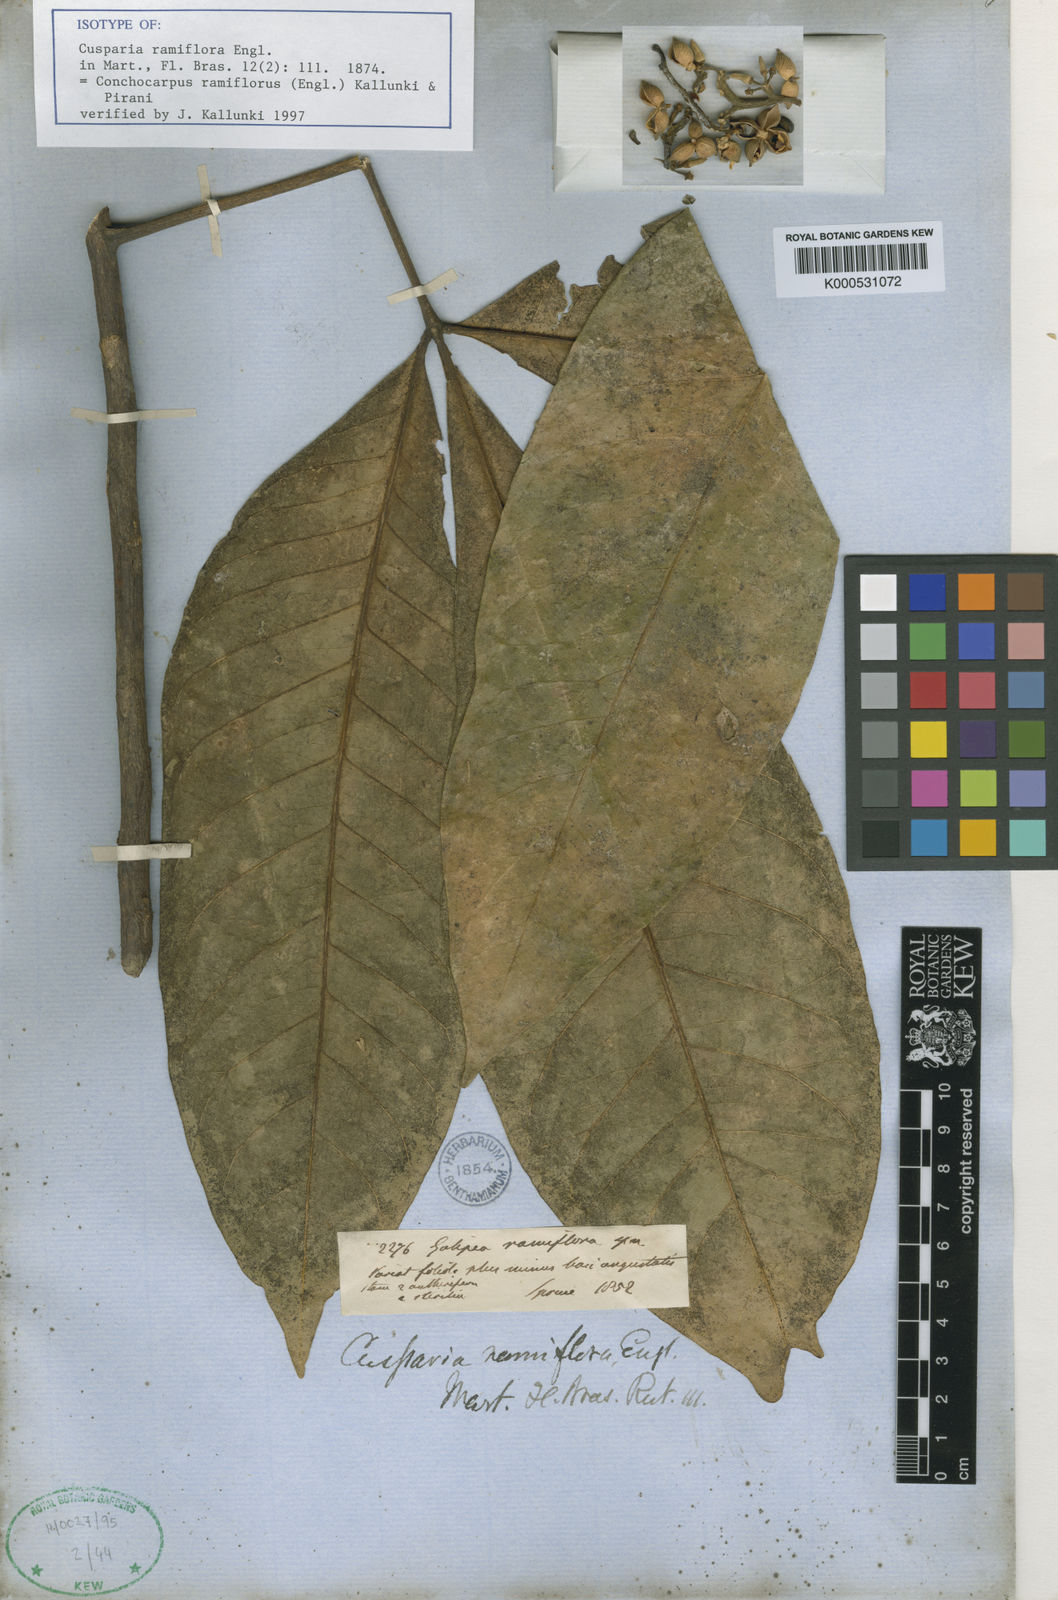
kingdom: Plantae
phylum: Tracheophyta
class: Magnoliopsida
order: Sapindales
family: Rutaceae
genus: Conchocarpus
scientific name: Conchocarpus ramiflorus
